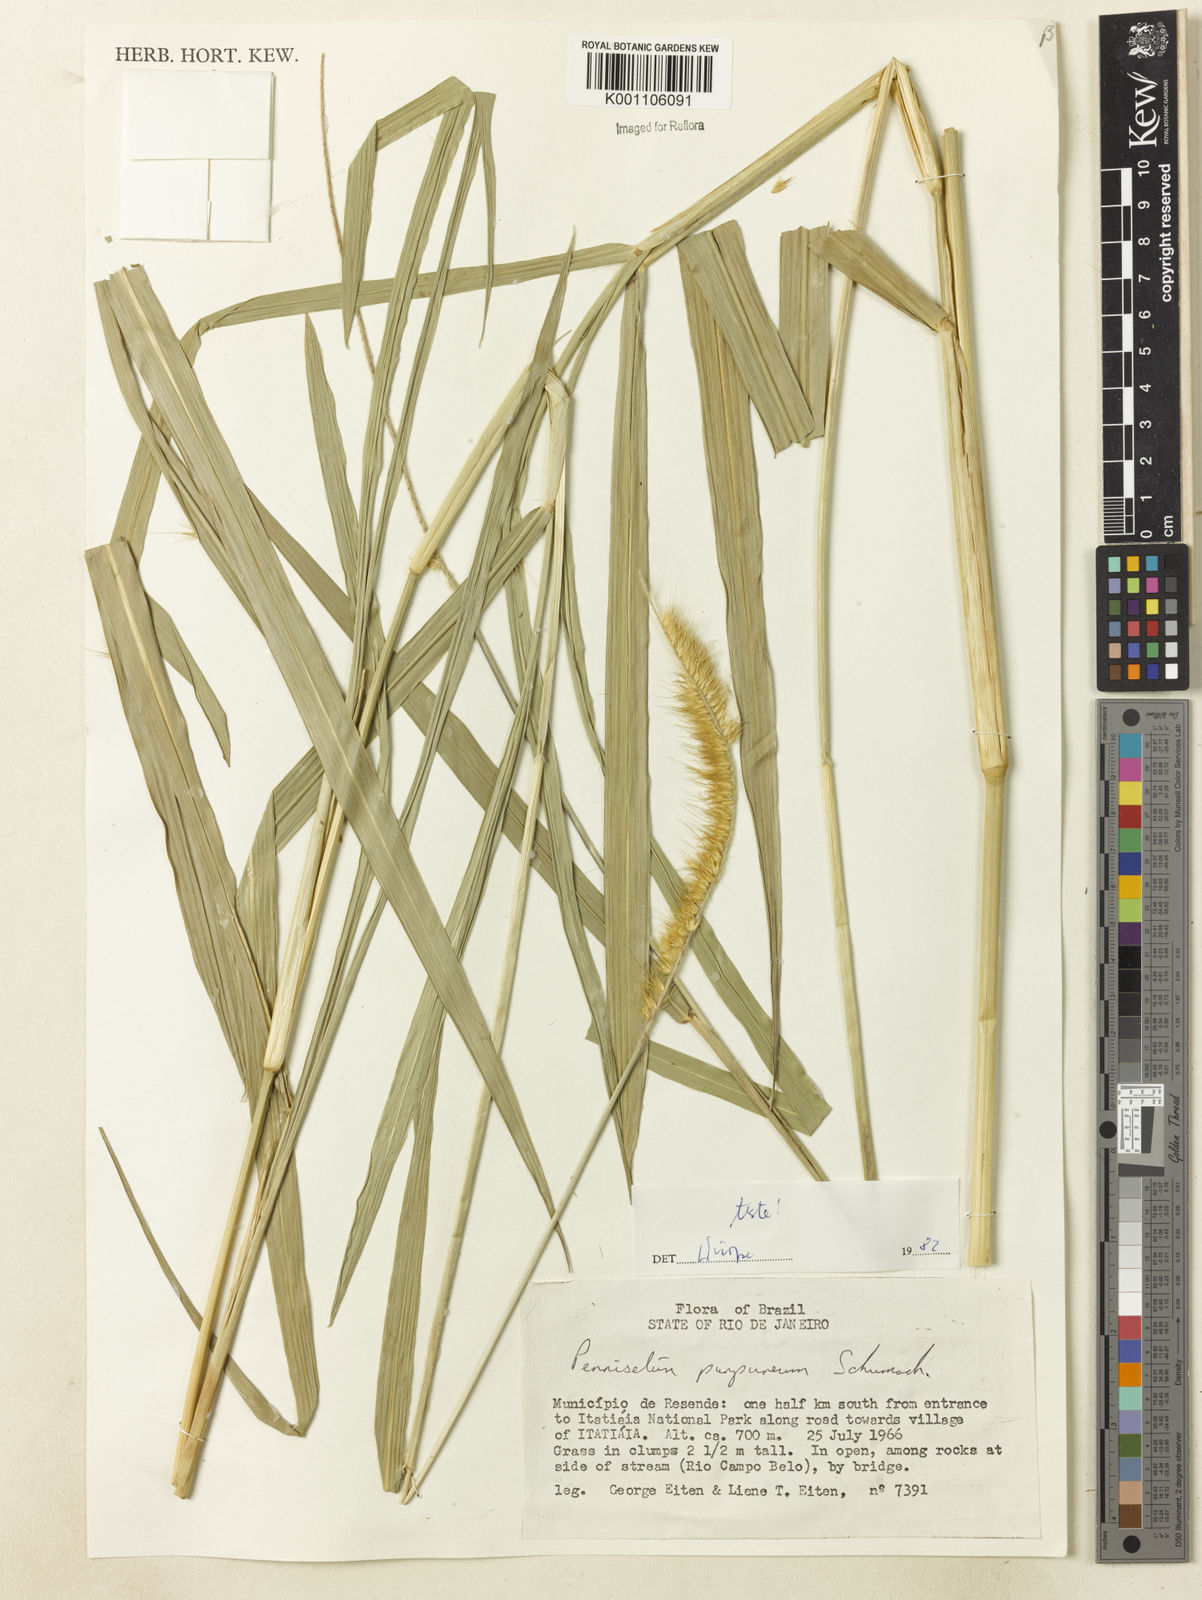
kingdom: Plantae
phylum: Tracheophyta
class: Liliopsida
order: Poales
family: Poaceae
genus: Cenchrus
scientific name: Cenchrus purpureus
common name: Elephant grass
